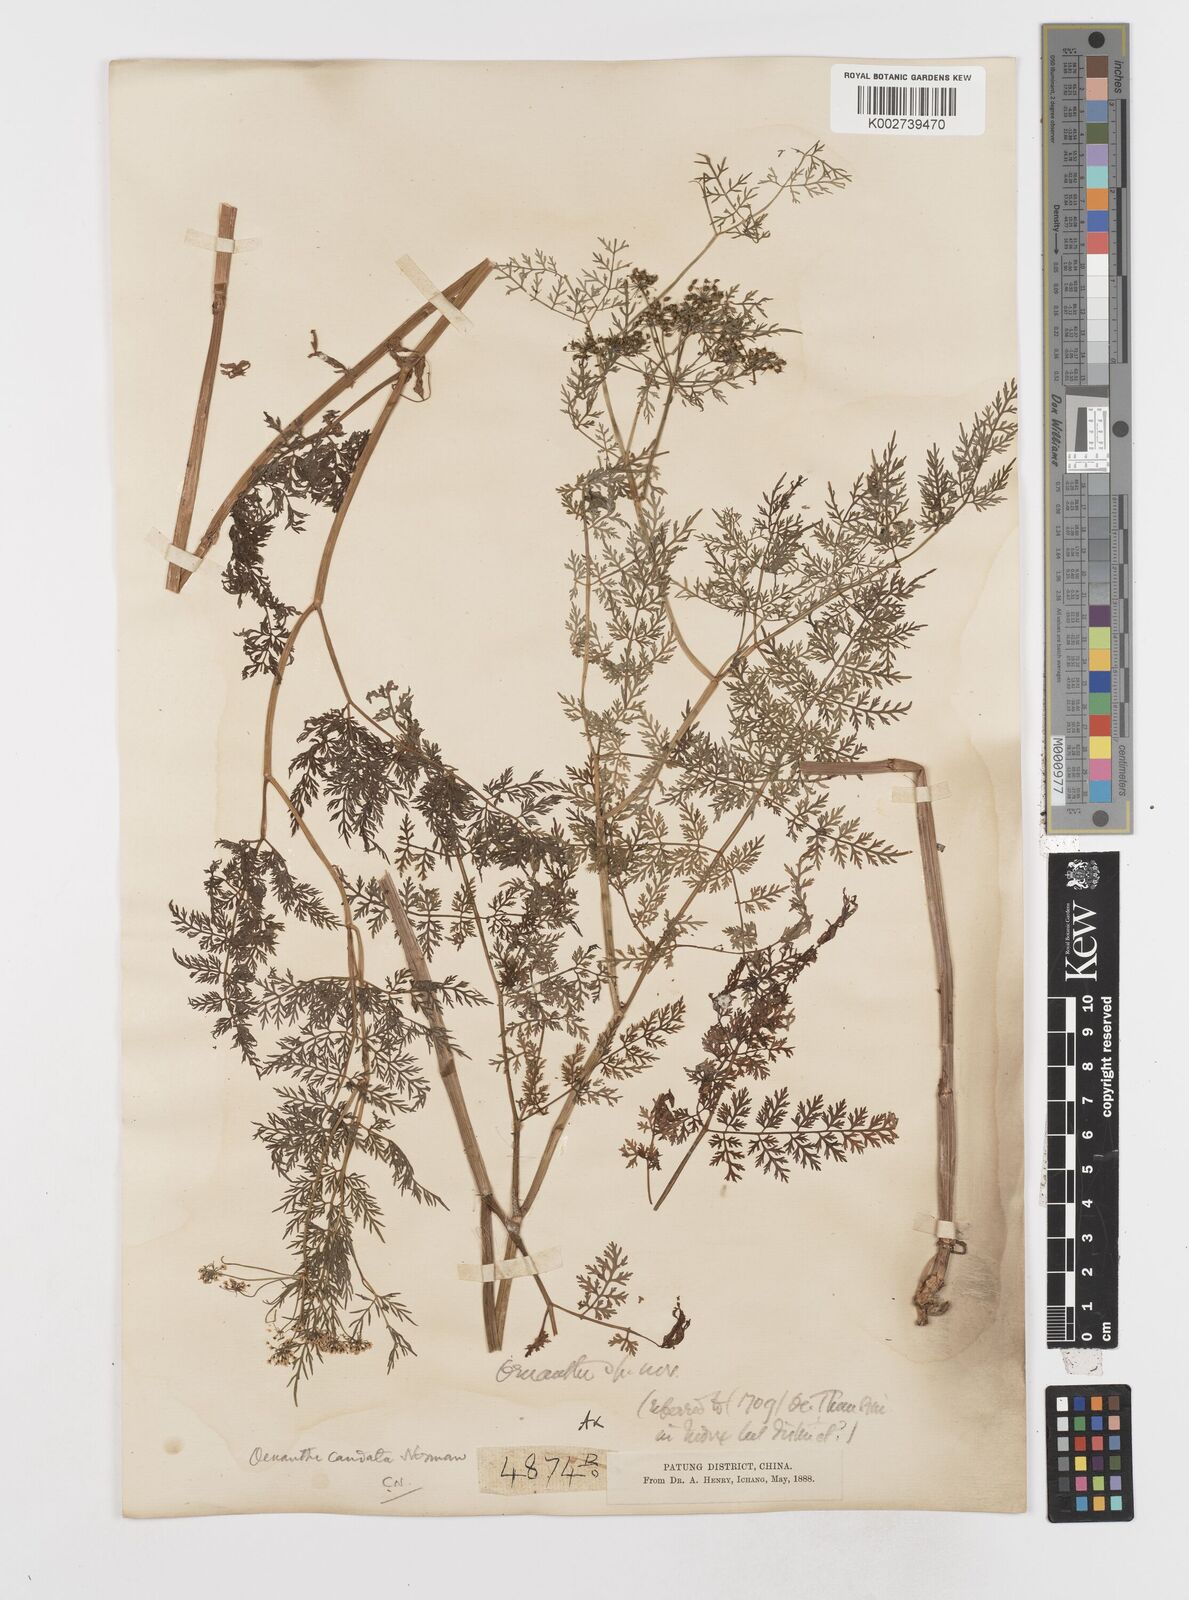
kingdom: Plantae
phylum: Tracheophyta
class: Magnoliopsida
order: Apiales
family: Apiaceae
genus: Oenanthe
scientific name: Oenanthe thomsonii
